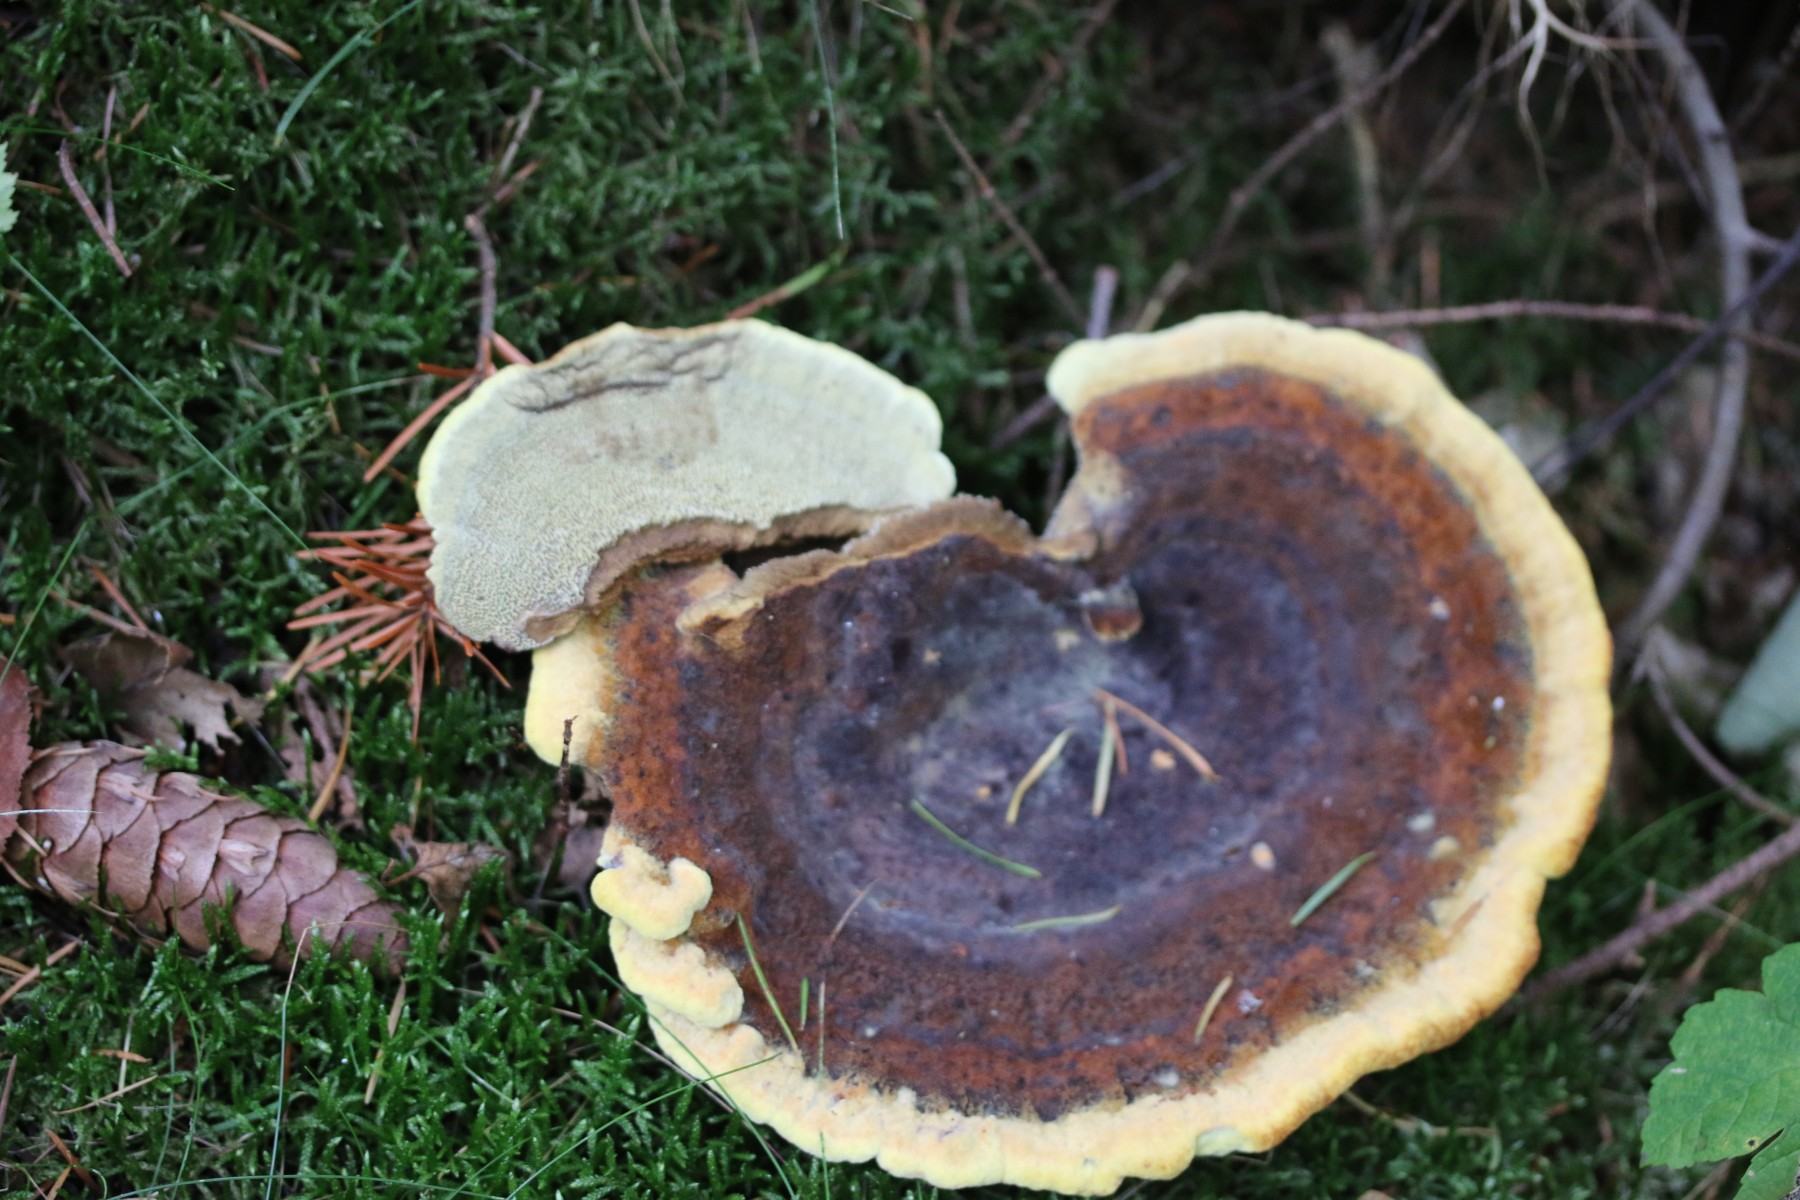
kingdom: Fungi
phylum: Basidiomycota
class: Agaricomycetes
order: Polyporales
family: Laetiporaceae
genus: Phaeolus
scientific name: Phaeolus schweinitzii
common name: brunporesvamp
